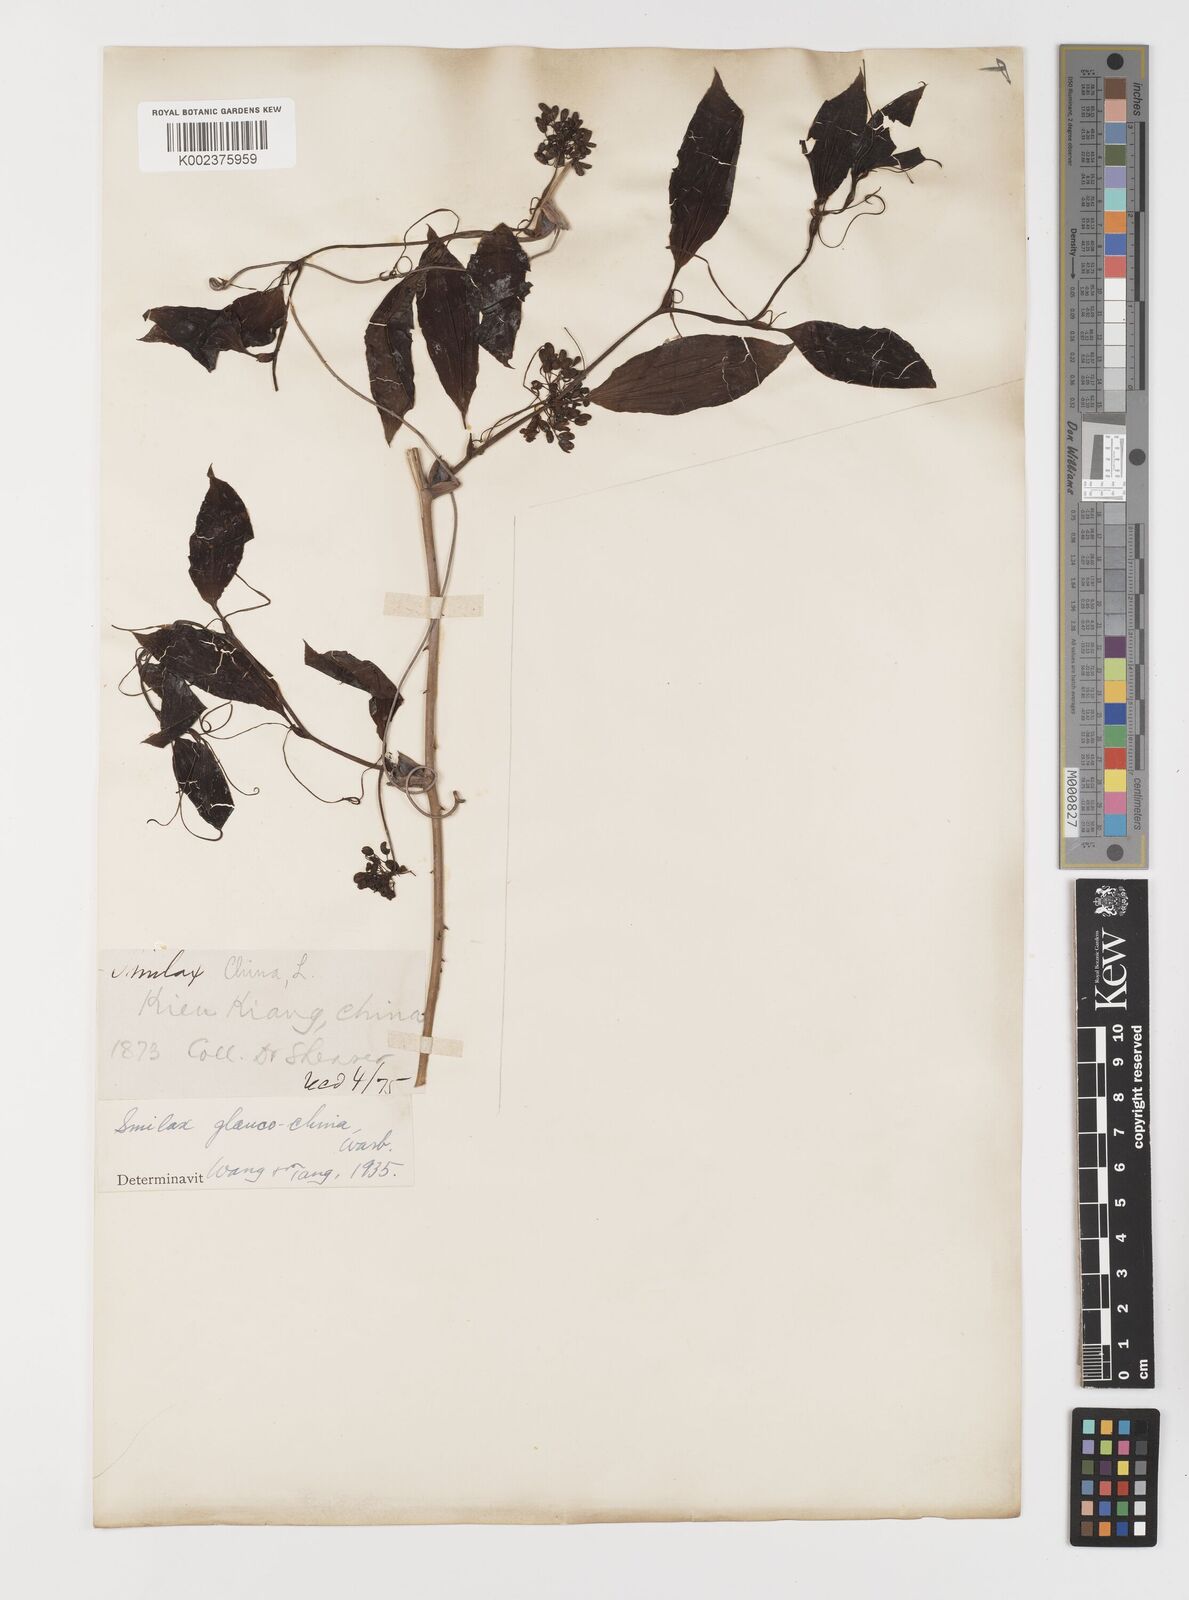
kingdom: Plantae
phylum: Tracheophyta
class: Liliopsida
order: Liliales
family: Smilacaceae
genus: Smilax
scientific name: Smilax glaucochina
